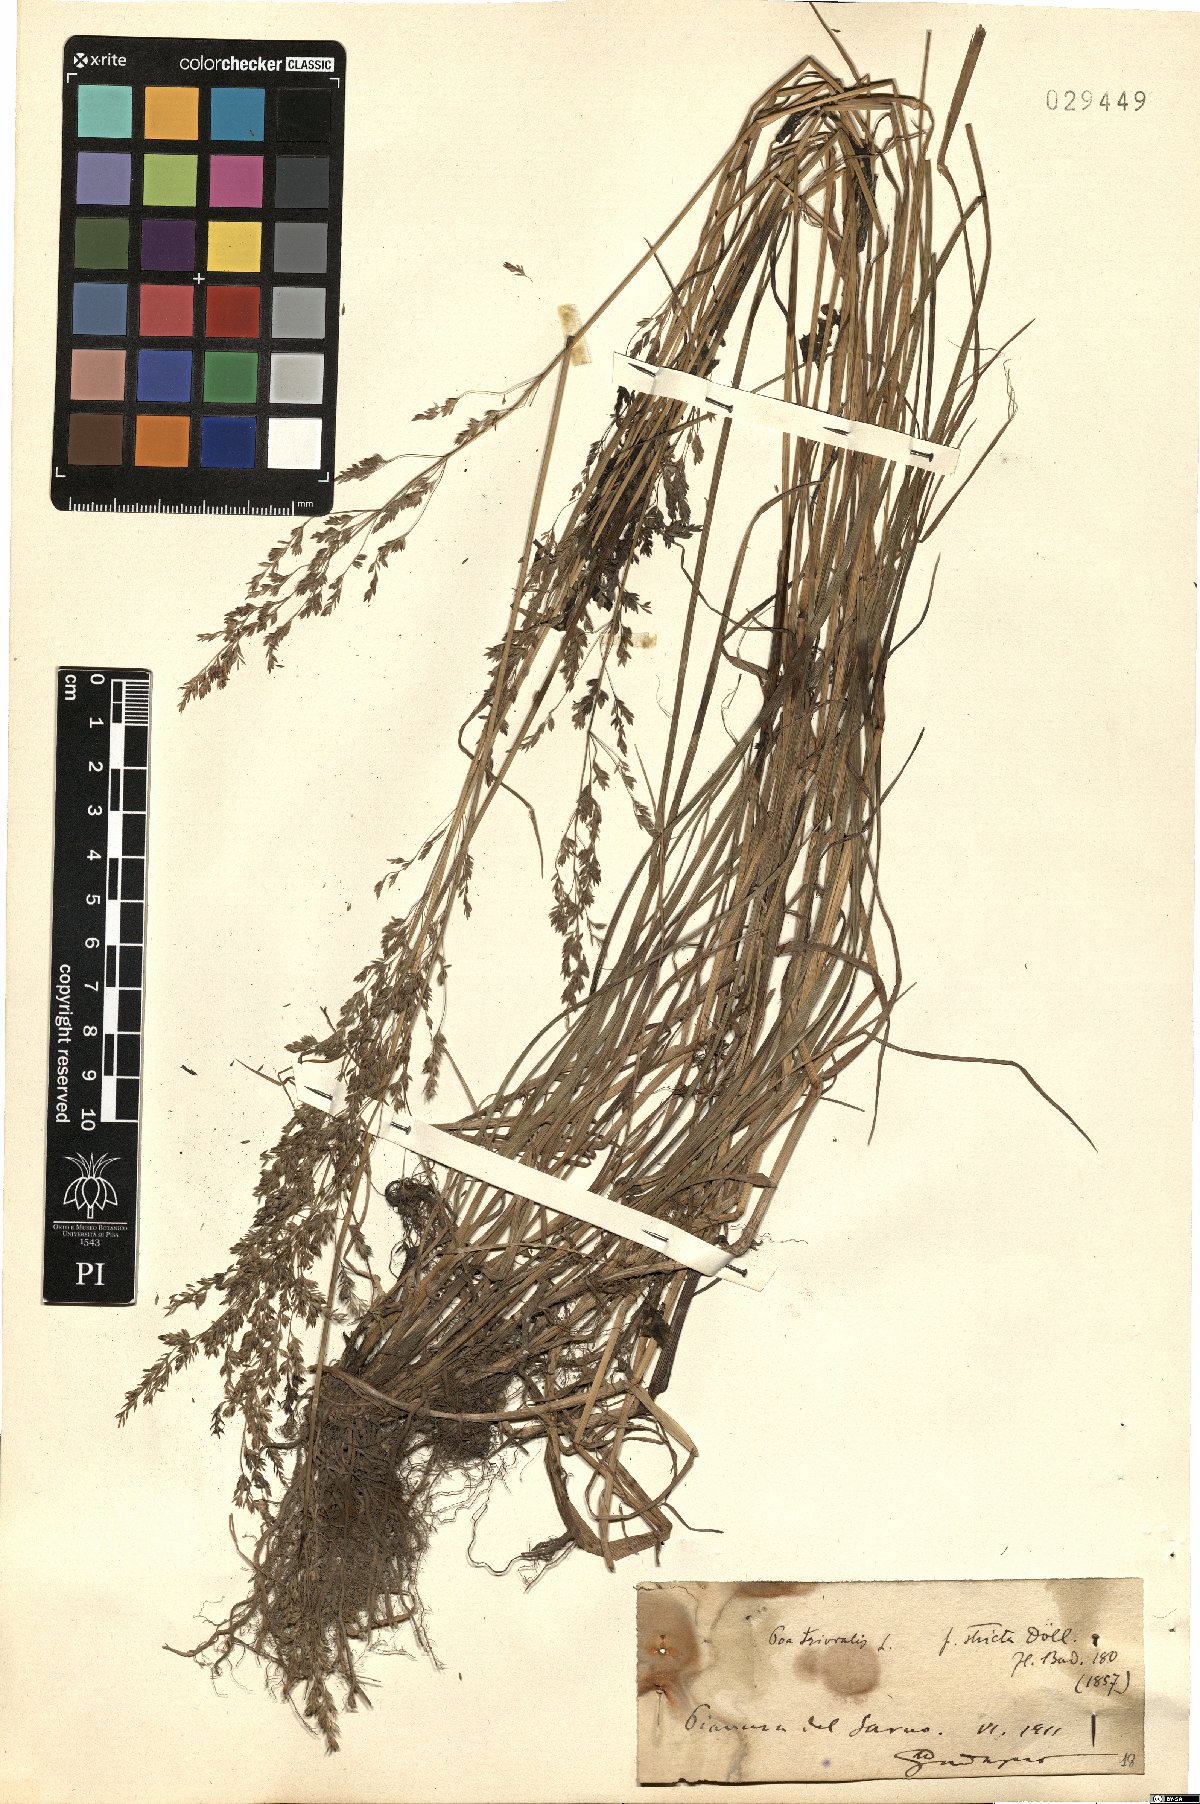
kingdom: Plantae
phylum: Tracheophyta
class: Liliopsida
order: Poales
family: Poaceae
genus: Poa
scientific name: Poa trivialis
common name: Rough bluegrass
